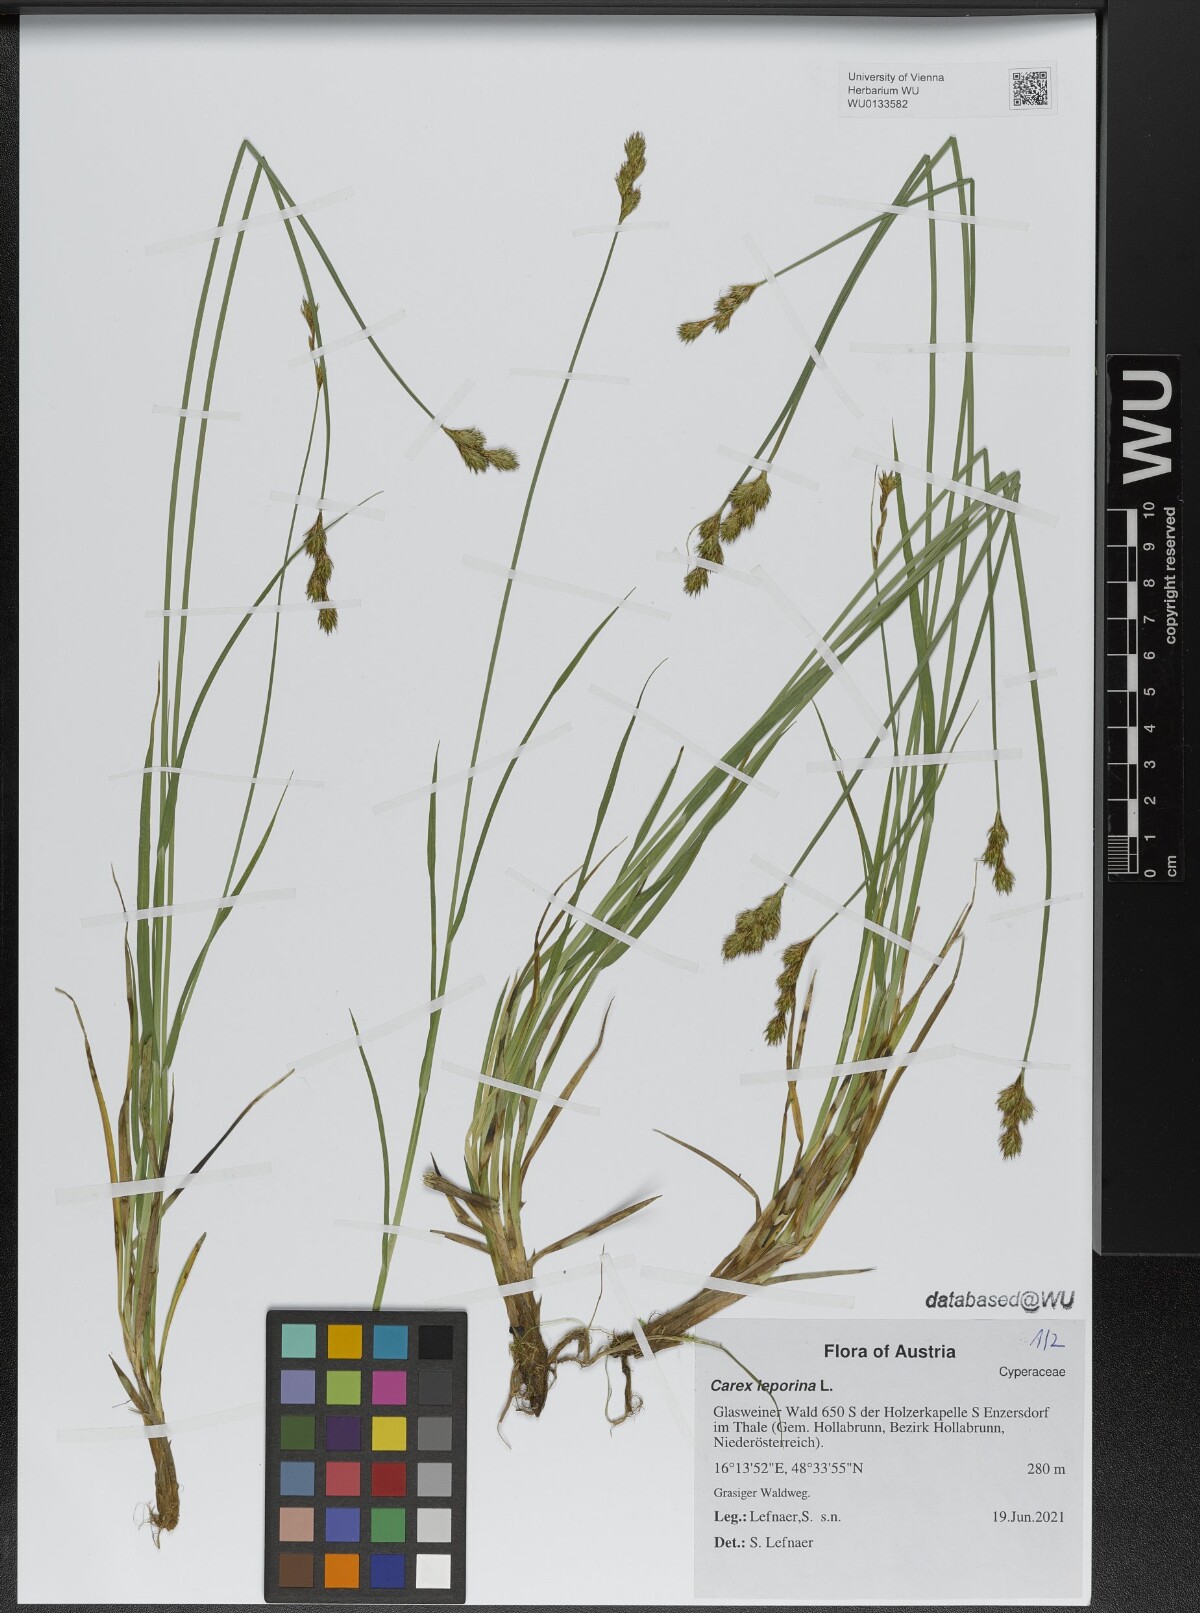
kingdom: Plantae
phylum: Tracheophyta
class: Liliopsida
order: Poales
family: Cyperaceae
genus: Carex
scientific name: Carex leporina
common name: Oval sedge
